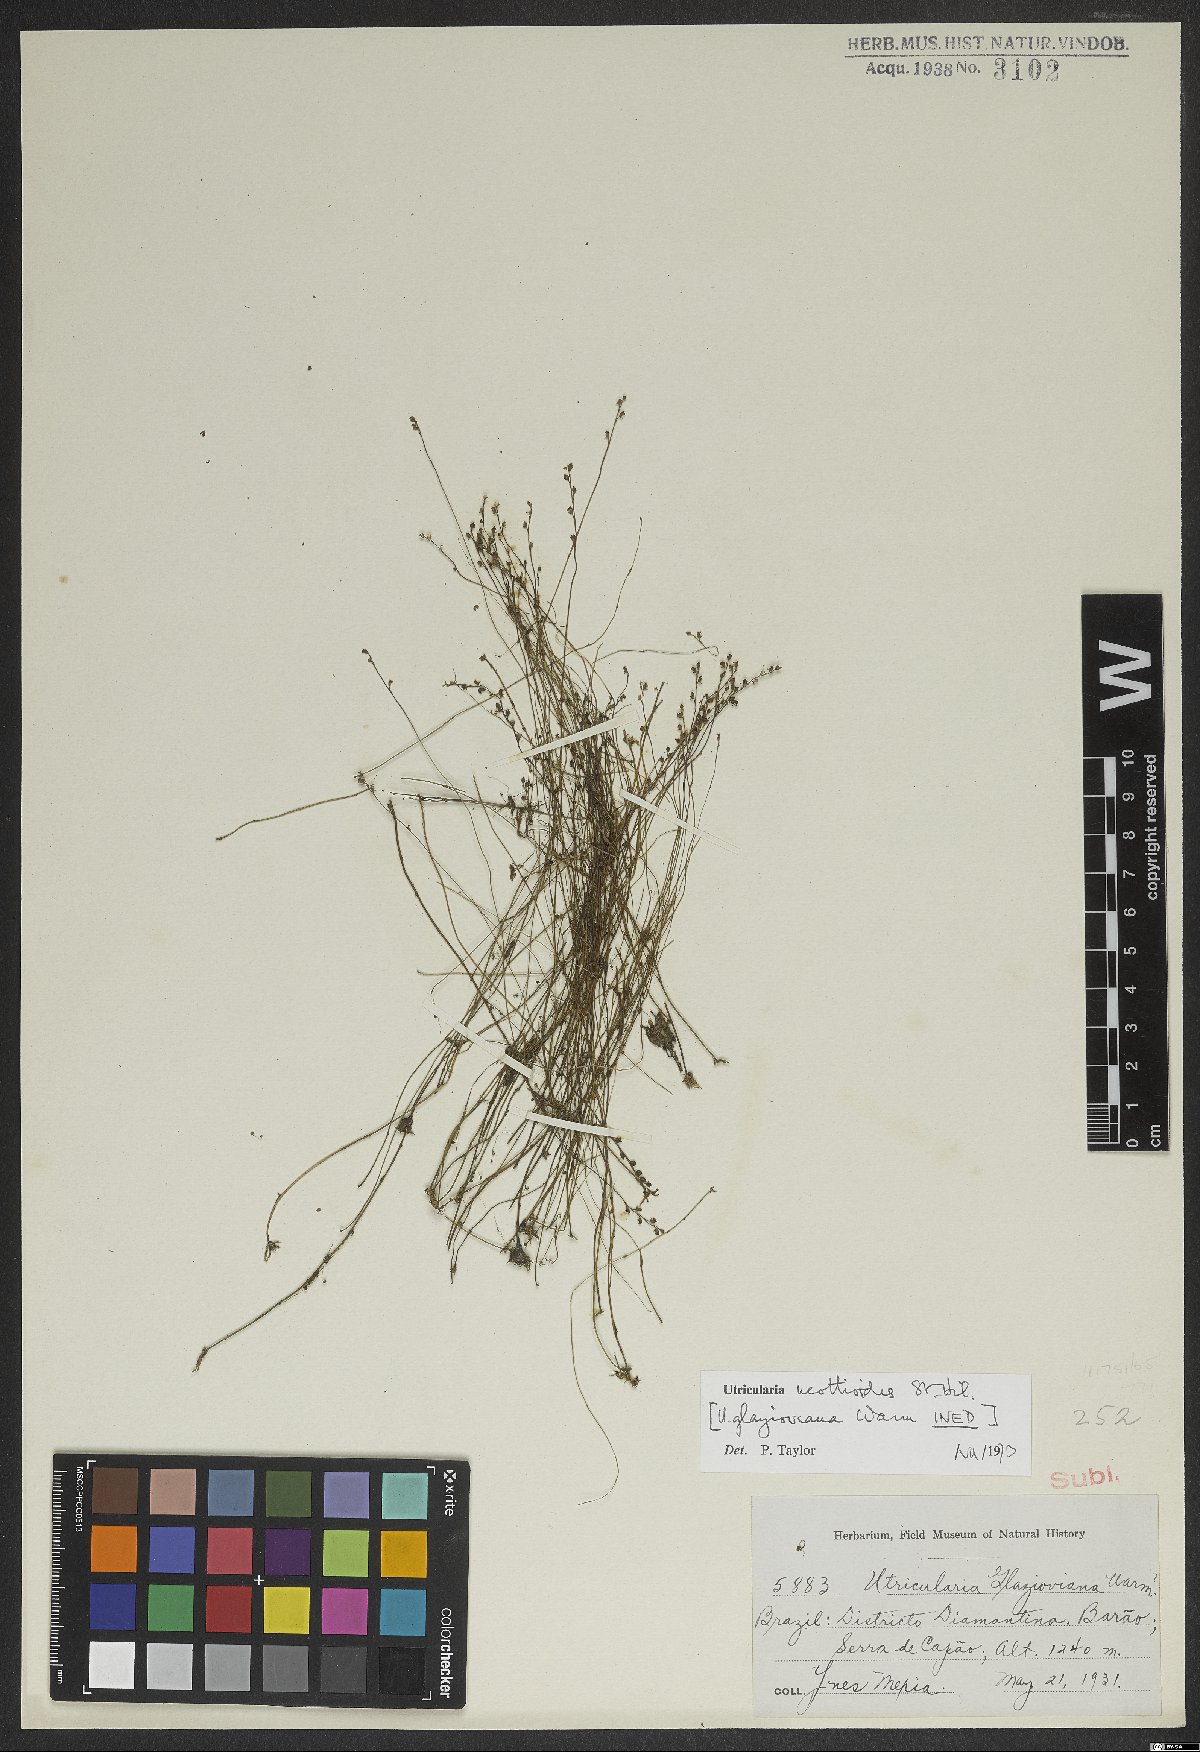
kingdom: Plantae
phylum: Tracheophyta
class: Magnoliopsida
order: Lamiales
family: Lentibulariaceae
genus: Utricularia
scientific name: Utricularia neottioides
